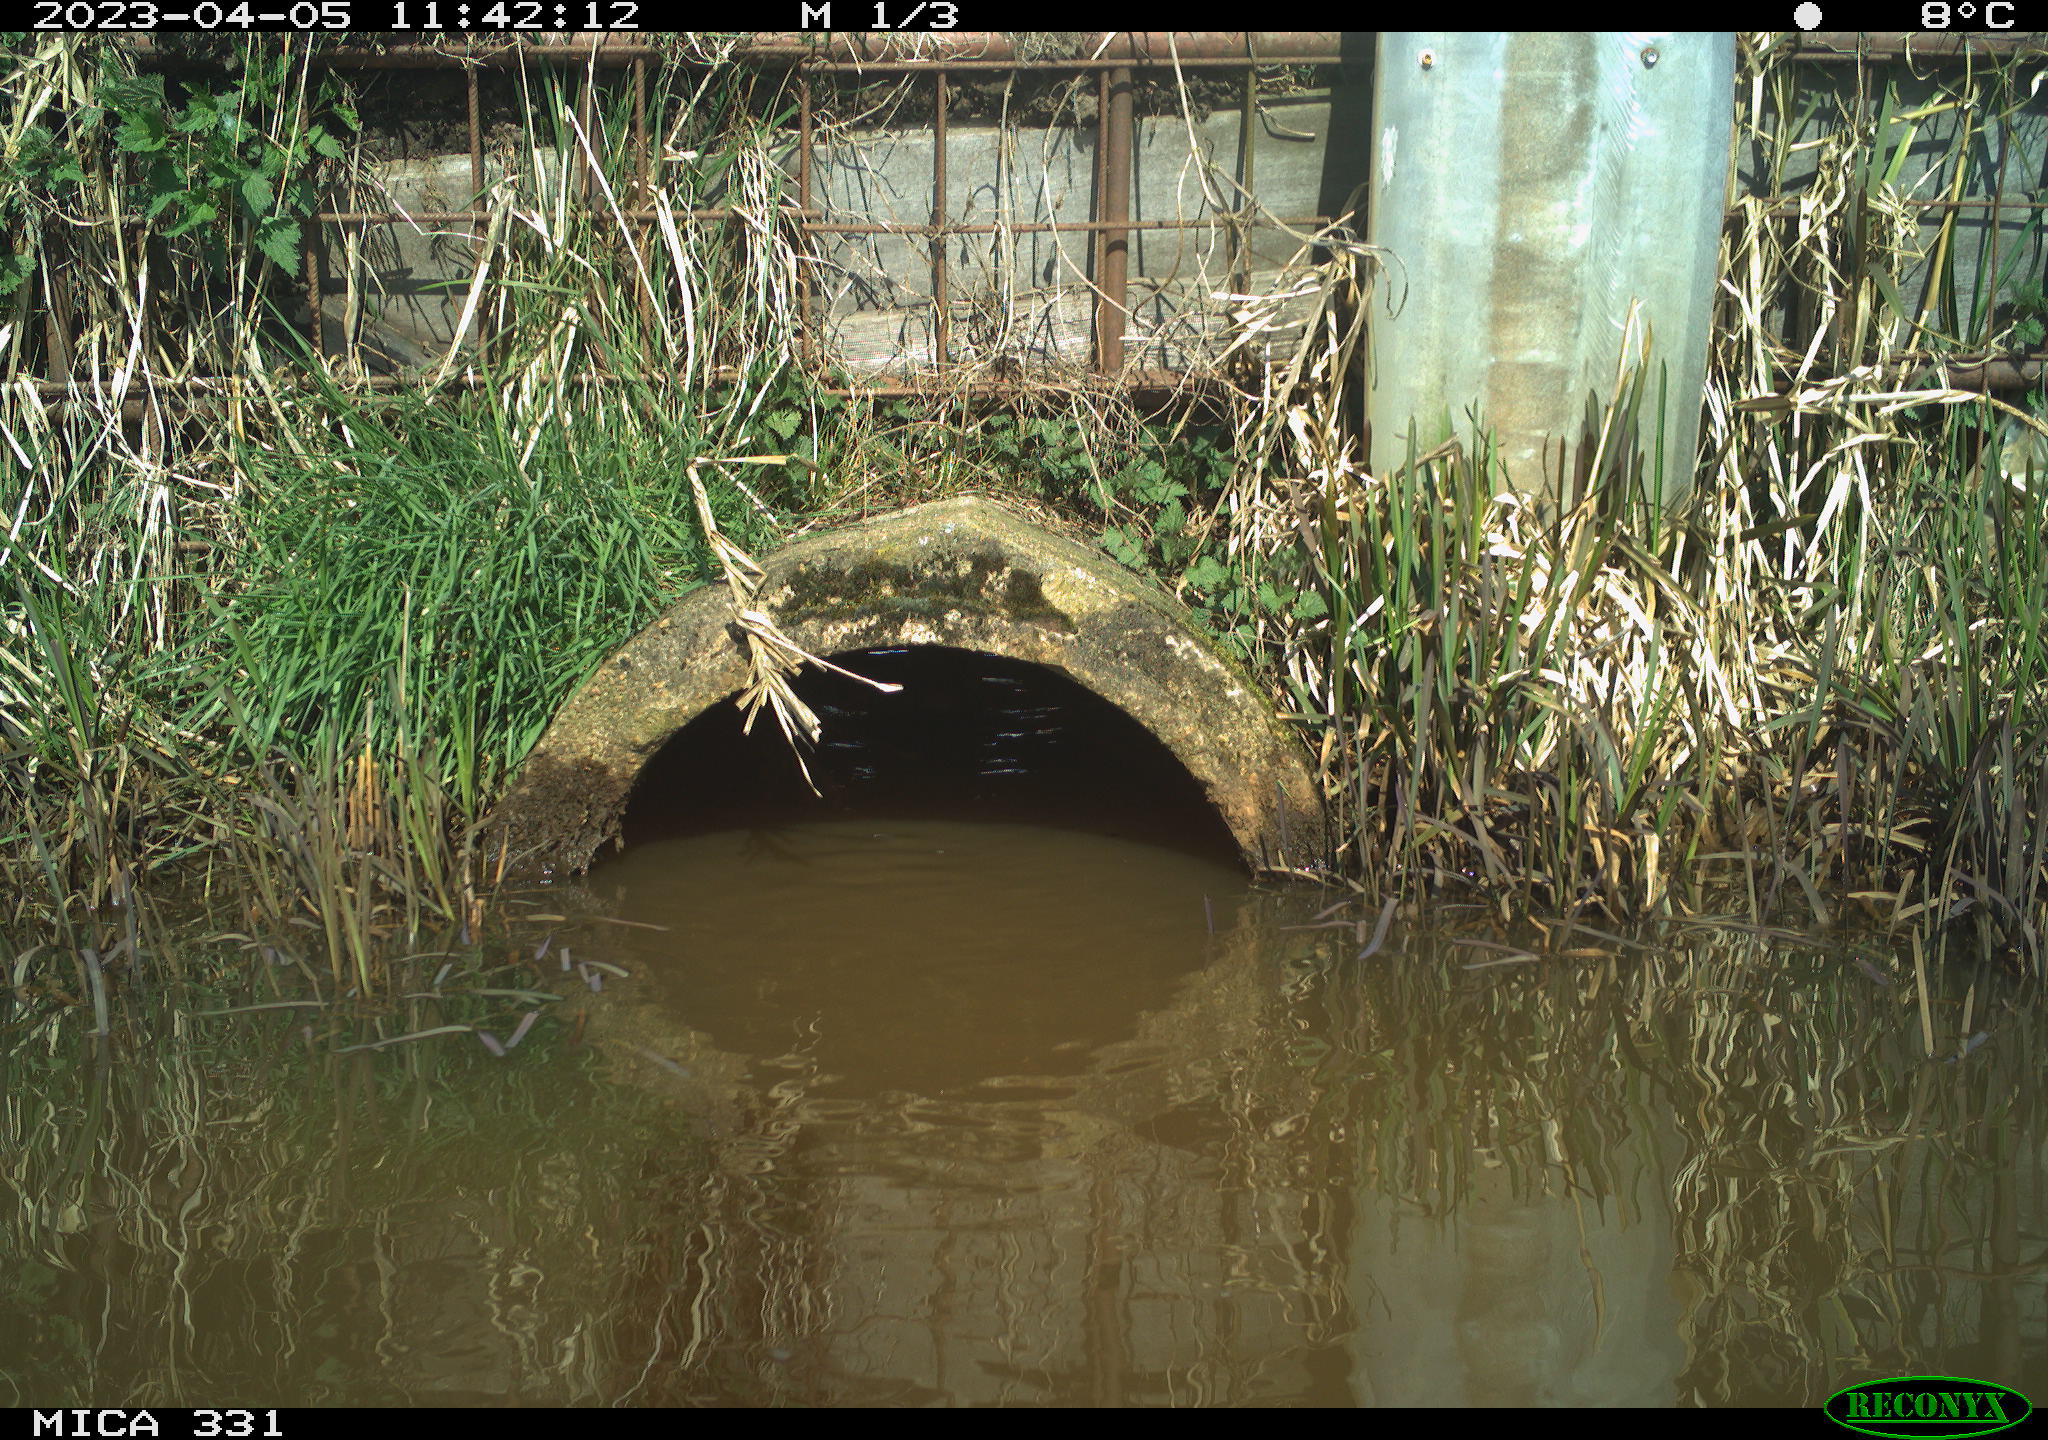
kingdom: Animalia
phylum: Chordata
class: Aves
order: Gruiformes
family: Rallidae
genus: Gallinula
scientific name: Gallinula chloropus
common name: Common moorhen
